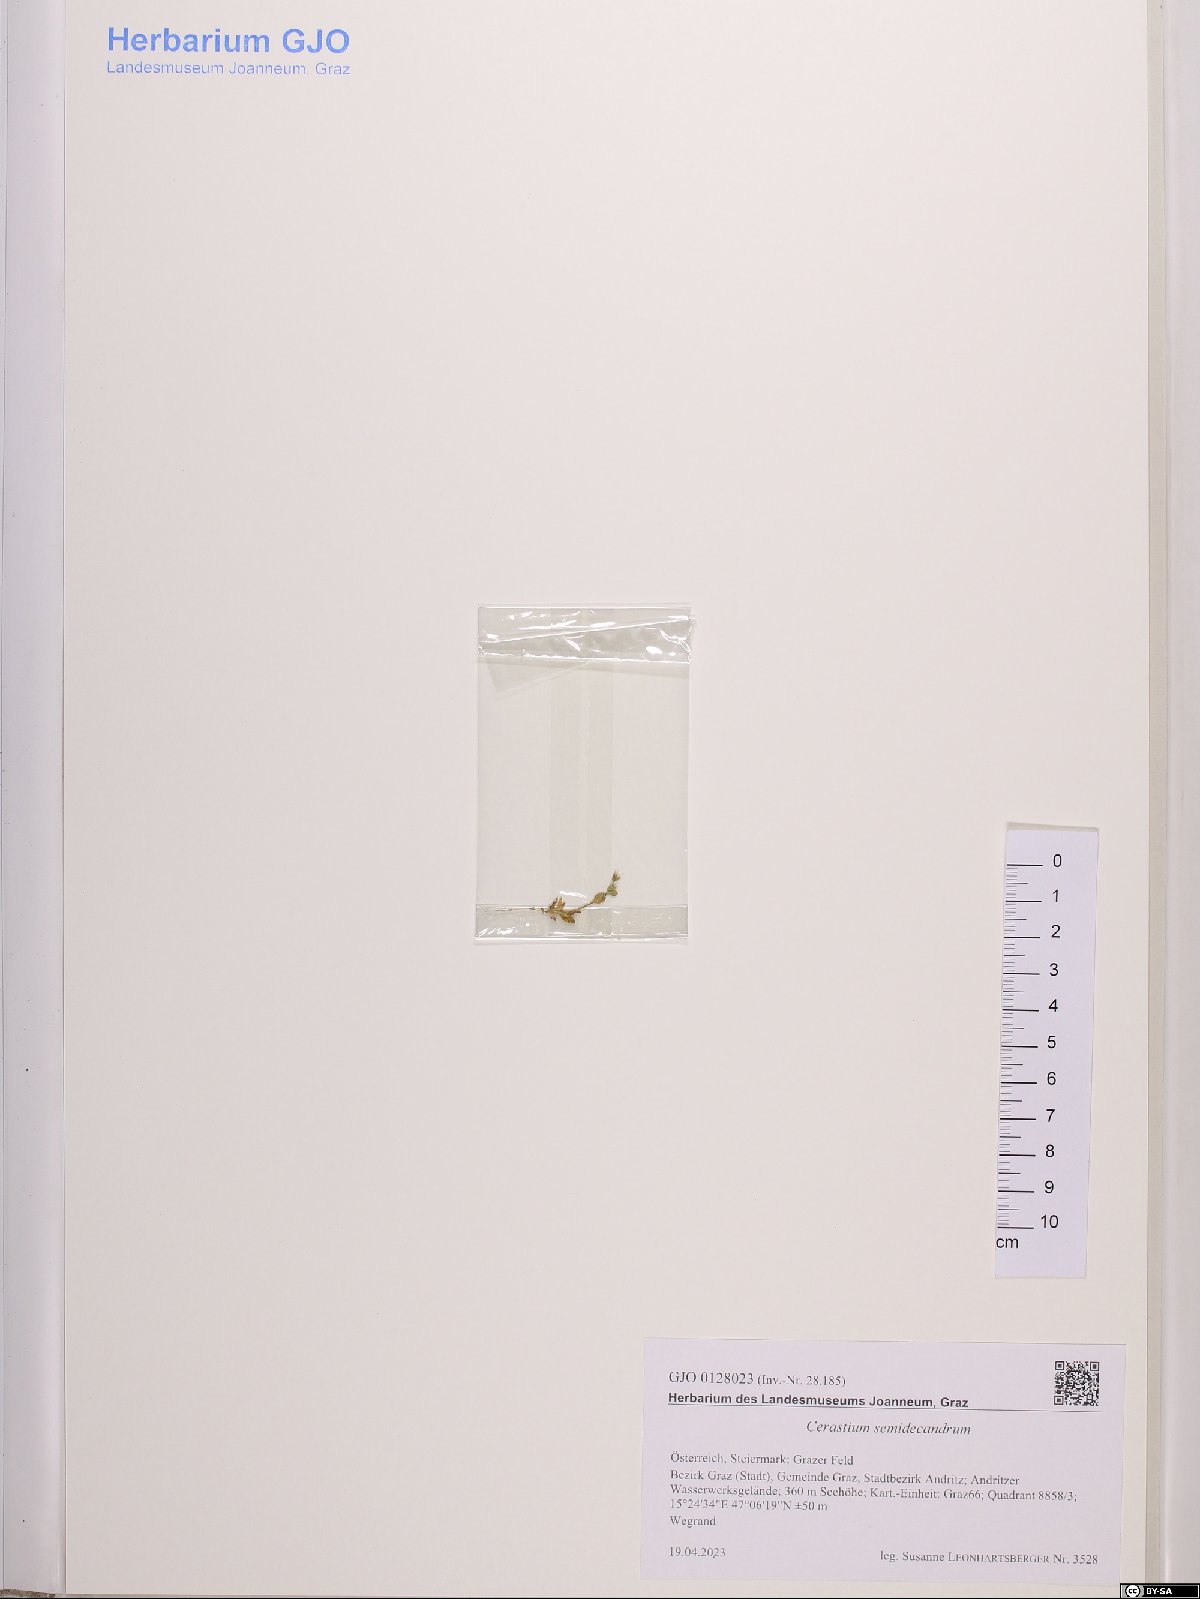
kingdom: Plantae
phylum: Tracheophyta
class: Magnoliopsida
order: Caryophyllales
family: Caryophyllaceae
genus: Cerastium
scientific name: Cerastium semidecandrum
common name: Little mouse-ear
